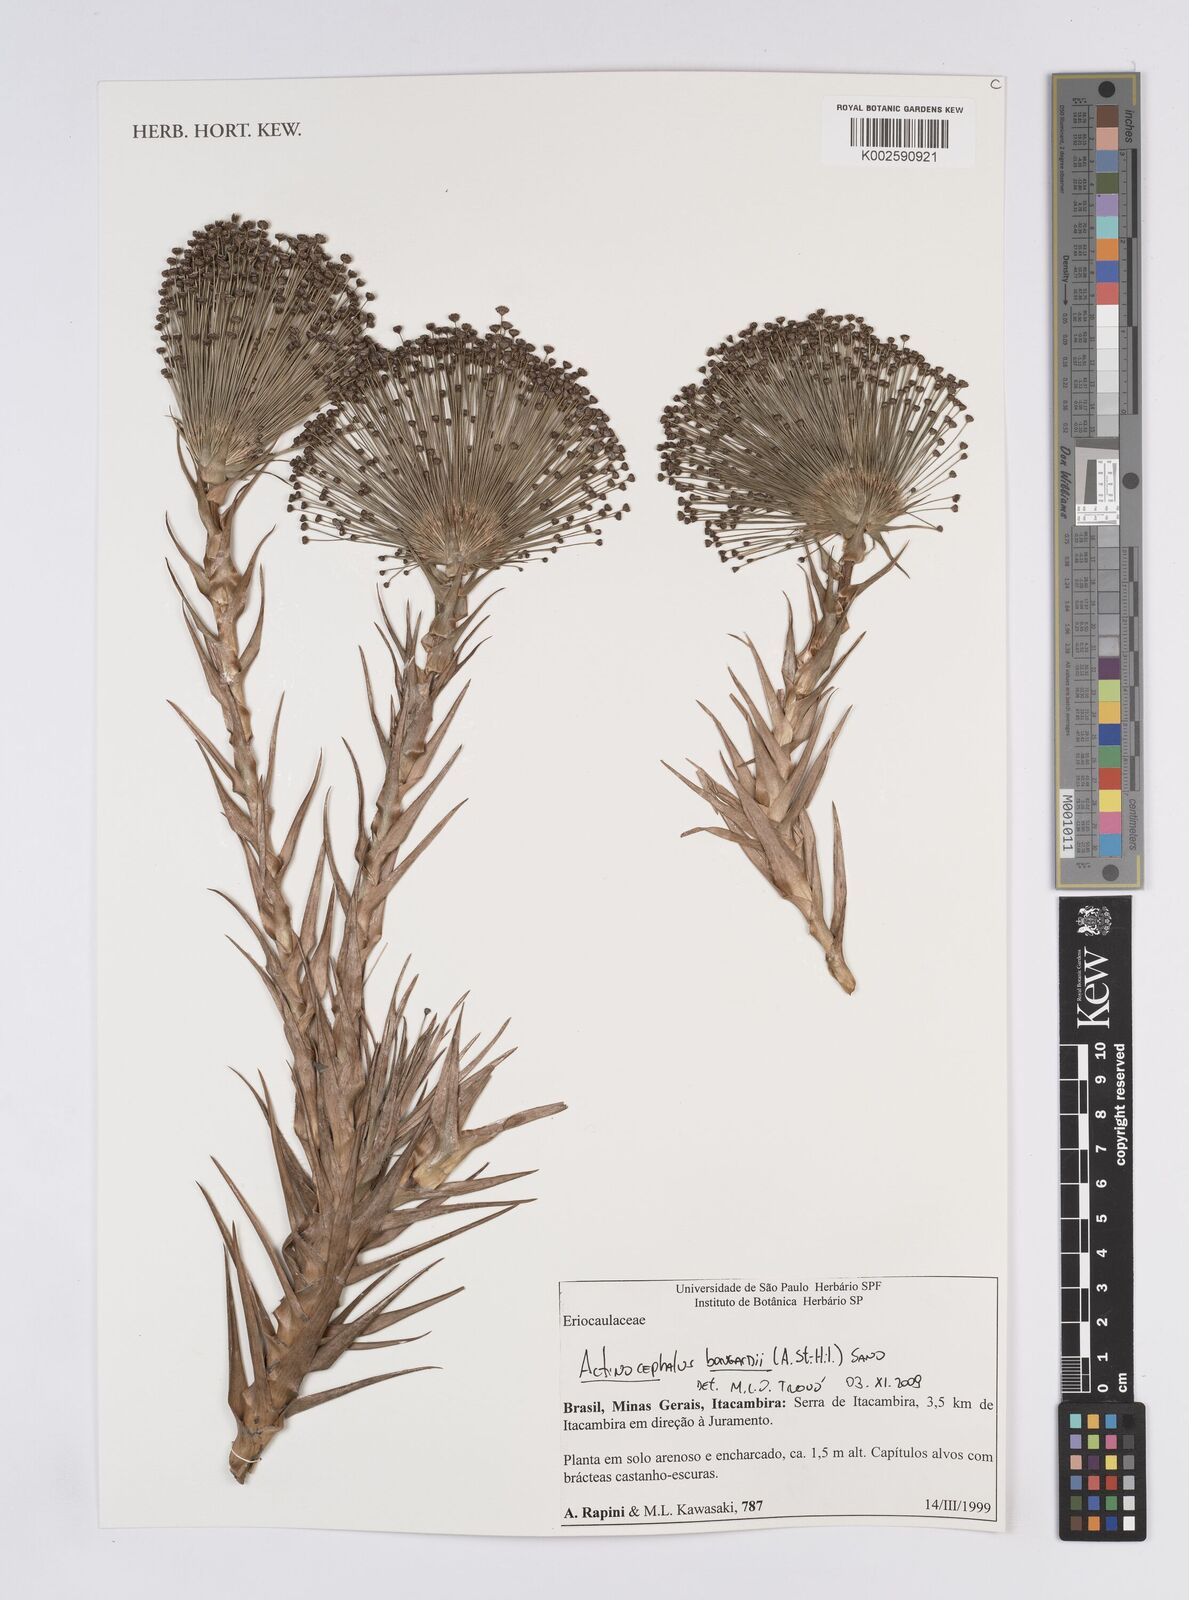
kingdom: Plantae
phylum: Tracheophyta
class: Liliopsida
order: Poales
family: Eriocaulaceae
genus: Paepalanthus
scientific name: Paepalanthus hilairei
